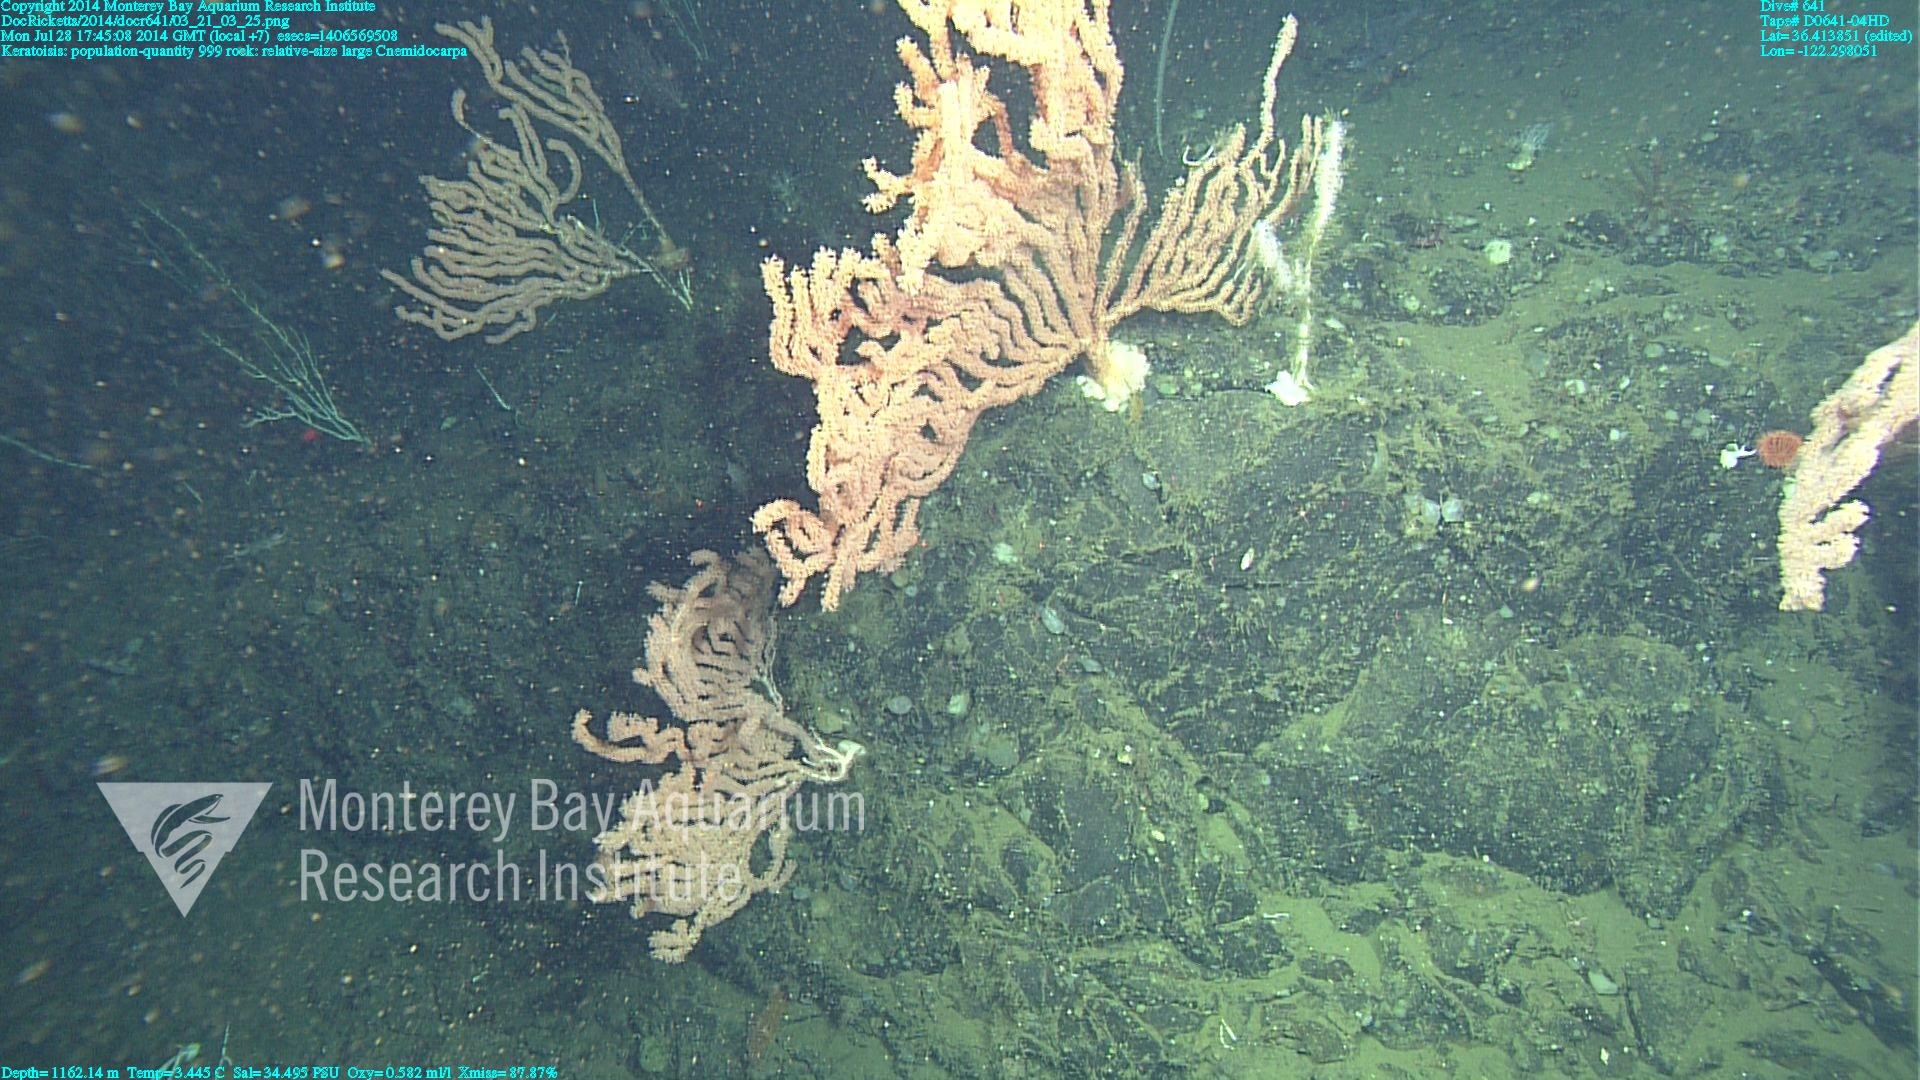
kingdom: Animalia
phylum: Cnidaria
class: Anthozoa
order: Scleralcyonacea
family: Keratoisididae
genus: Keratoisis
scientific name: Keratoisis
